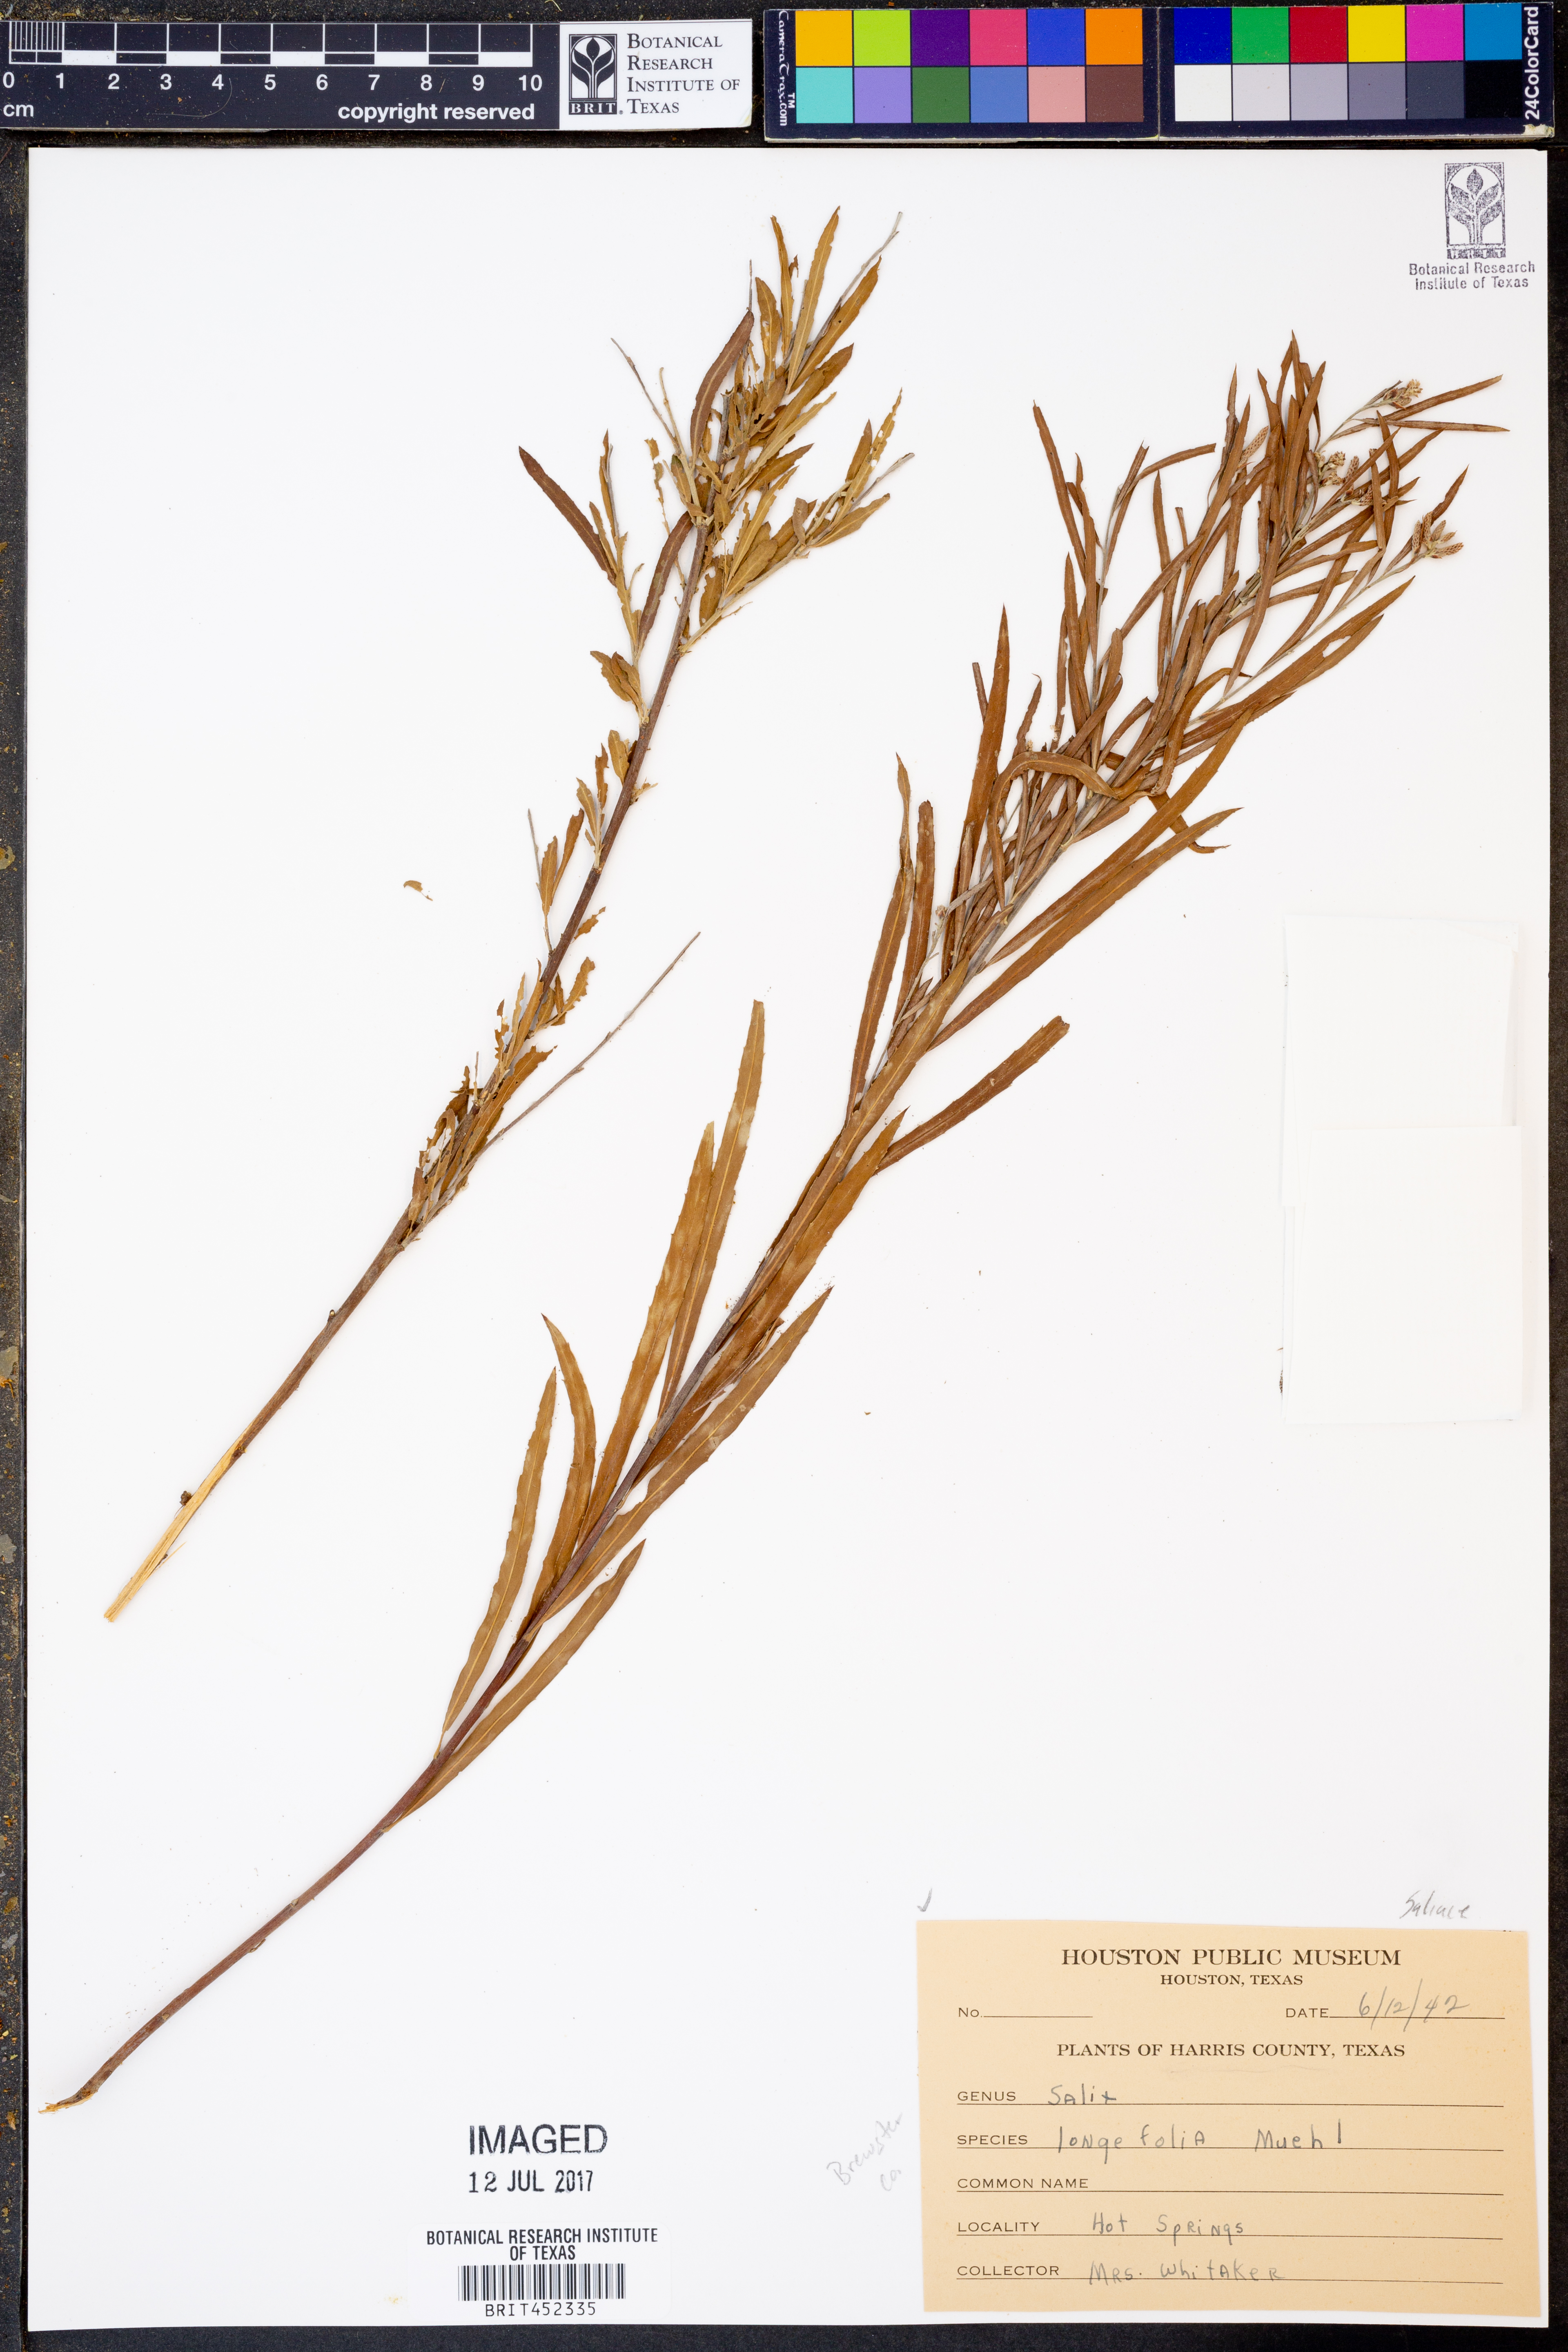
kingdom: Plantae
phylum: Tracheophyta
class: Magnoliopsida
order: Malpighiales
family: Salicaceae
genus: Salix
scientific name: Salix interior
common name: Sandbar willow
